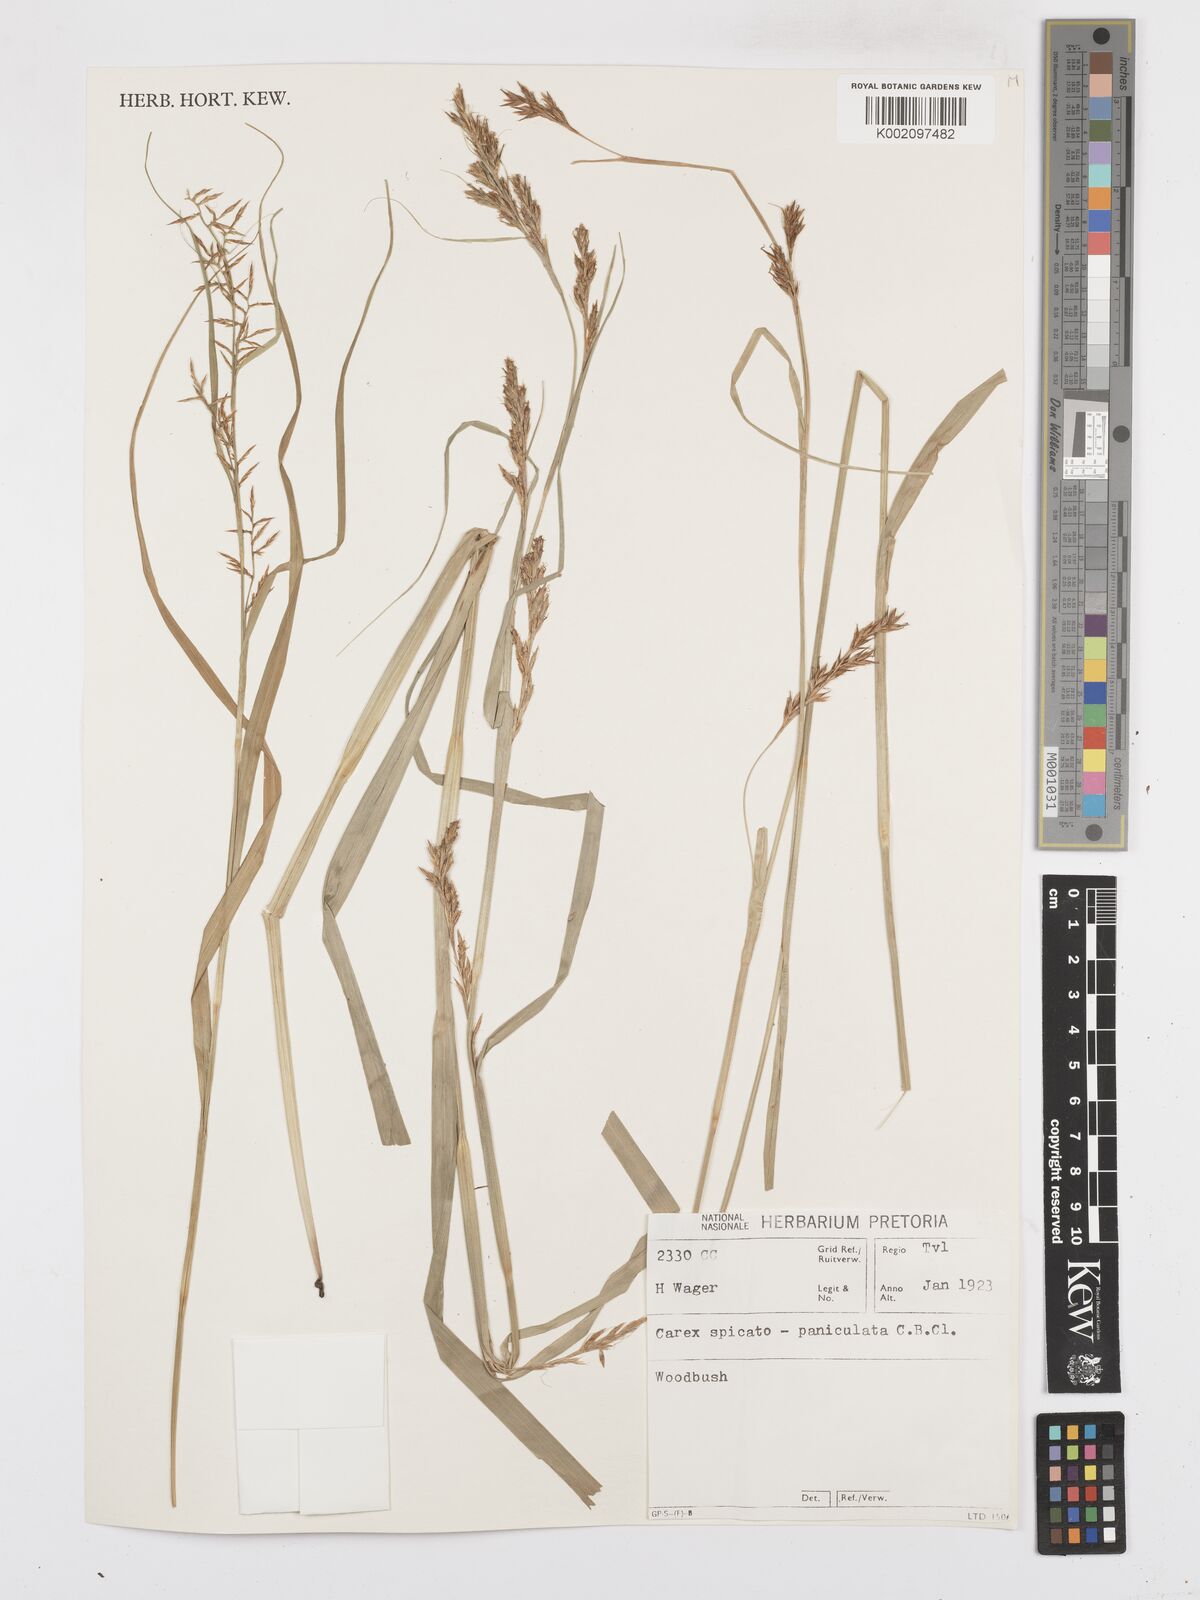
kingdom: Plantae
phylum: Tracheophyta
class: Liliopsida
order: Poales
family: Cyperaceae
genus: Carex
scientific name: Carex spicatopaniculata
